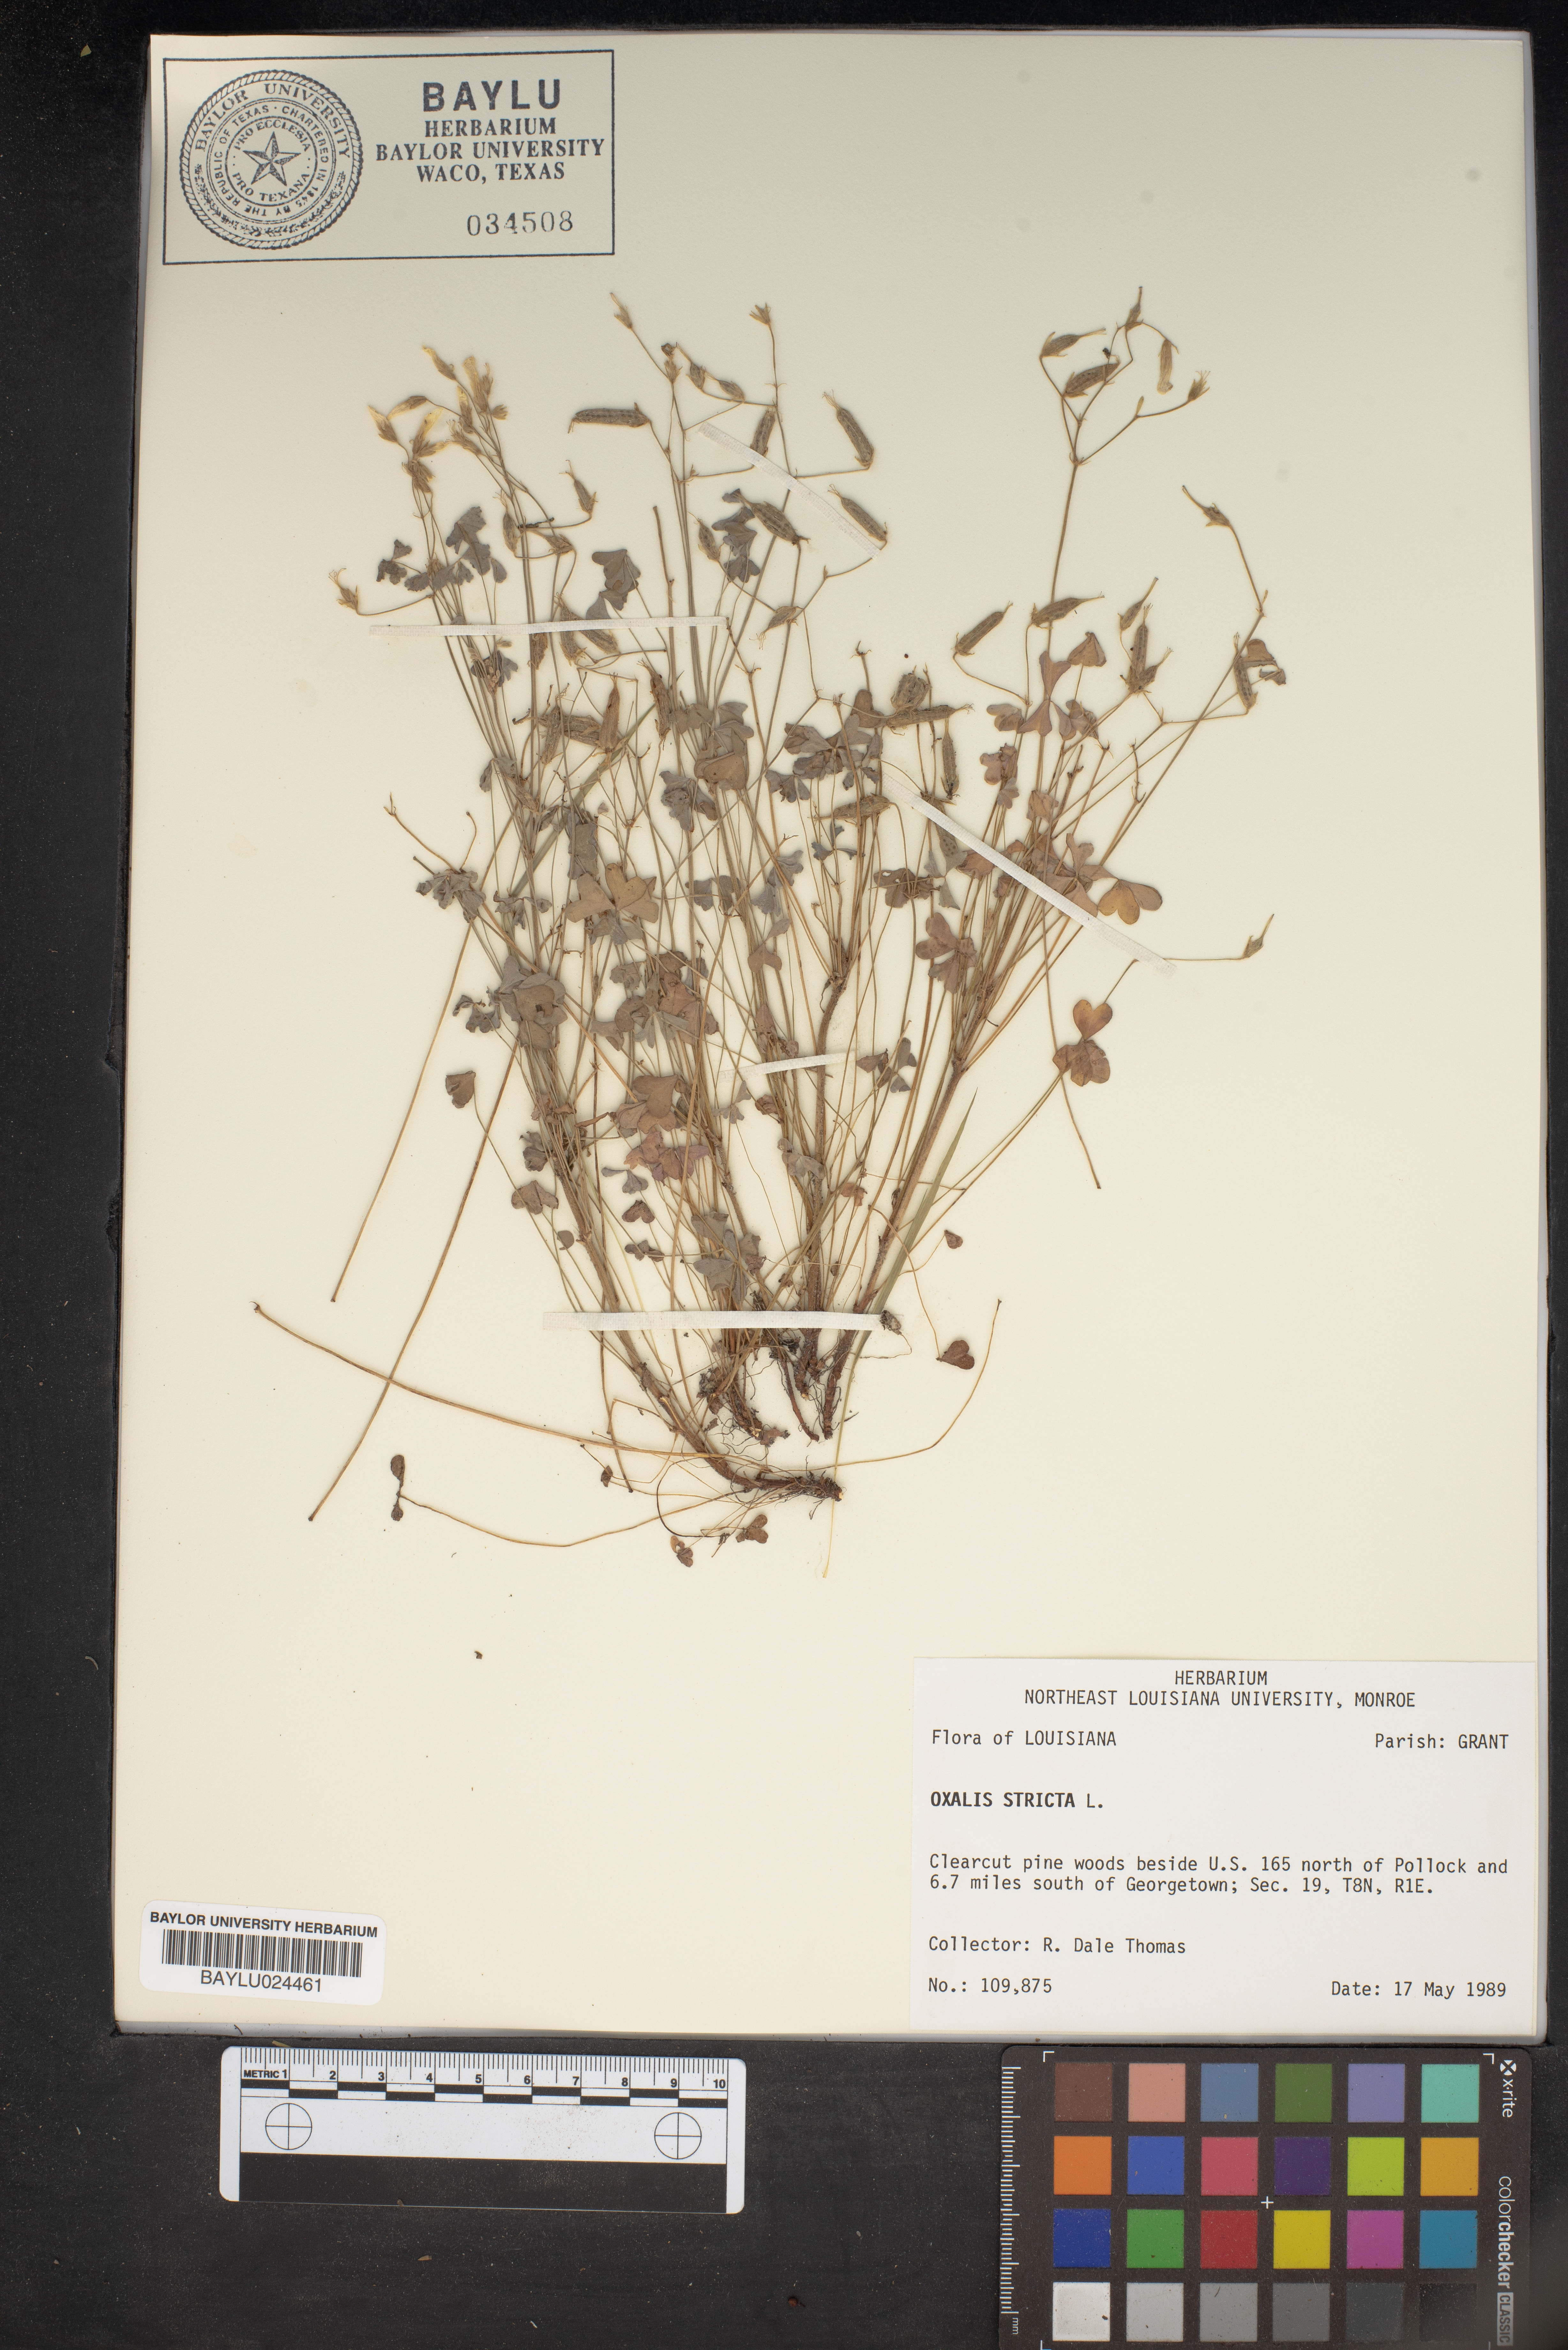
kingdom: Plantae
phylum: Tracheophyta
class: Magnoliopsida
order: Oxalidales
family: Oxalidaceae
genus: Oxalis
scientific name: Oxalis stricta
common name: Upright yellow-sorrel
